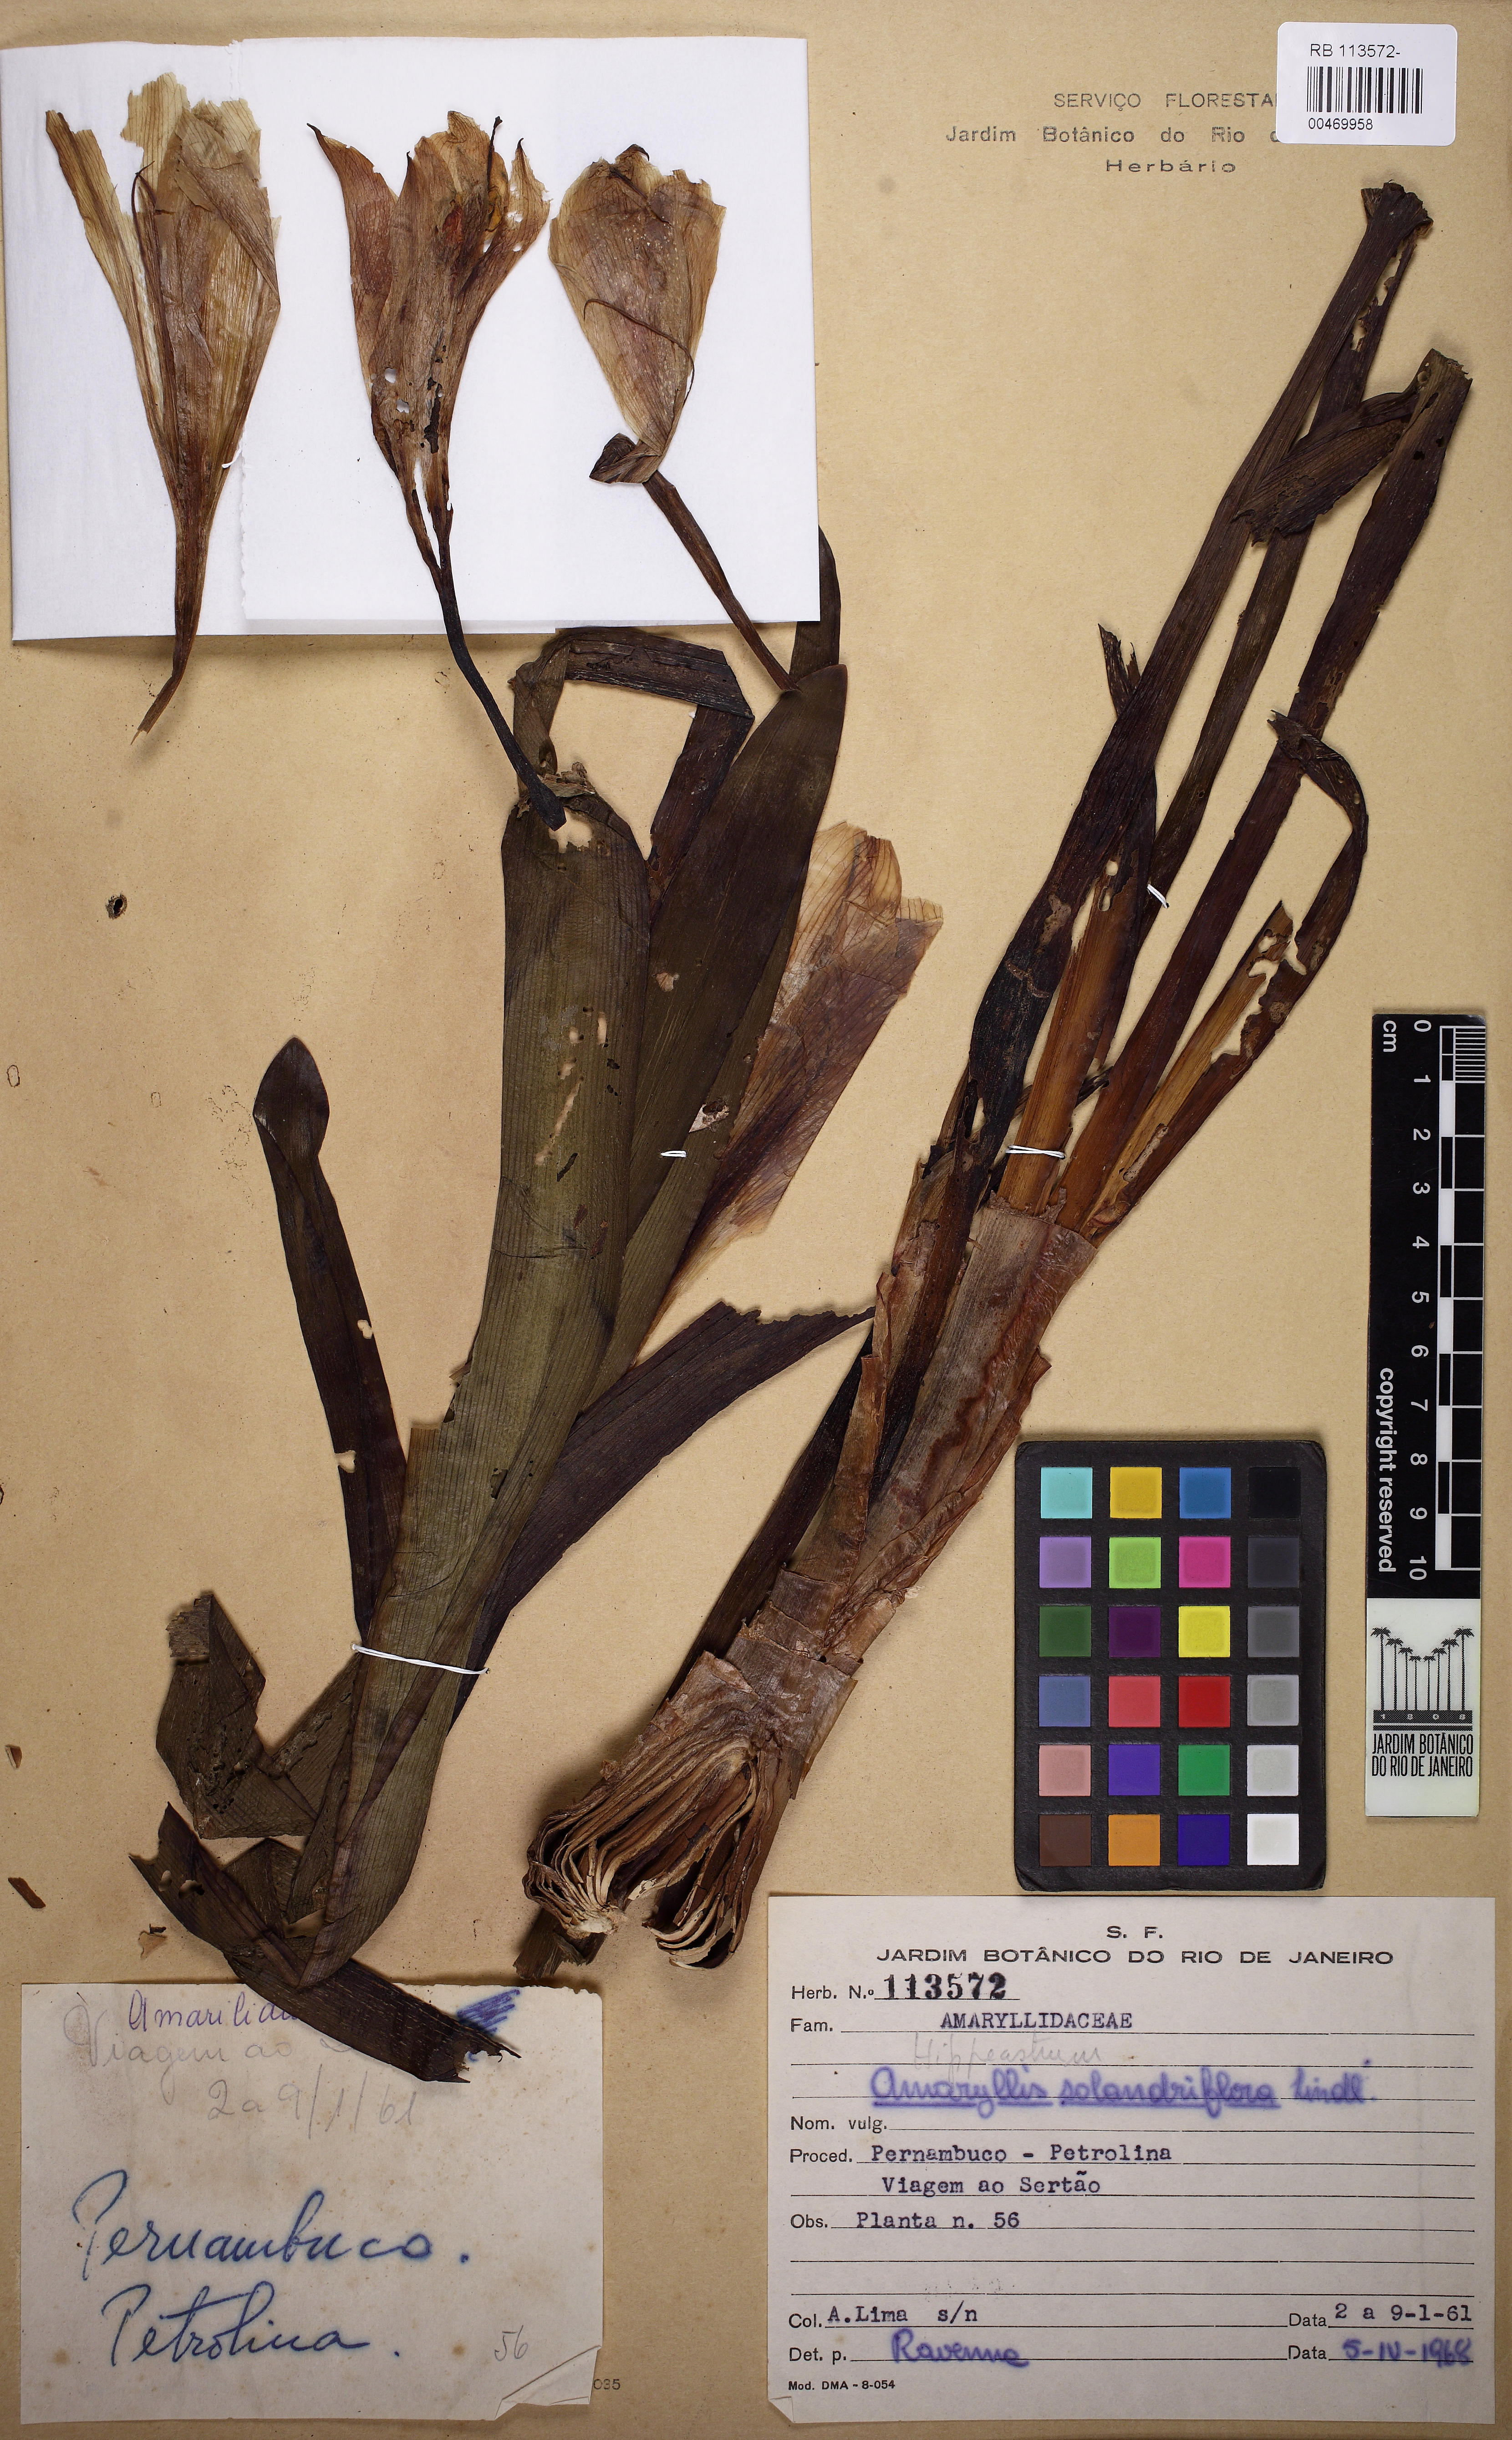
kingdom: Plantae
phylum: Tracheophyta
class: Liliopsida
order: Asparagales
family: Amaryllidaceae
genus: Hippeastrum
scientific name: Hippeastrum elegans
